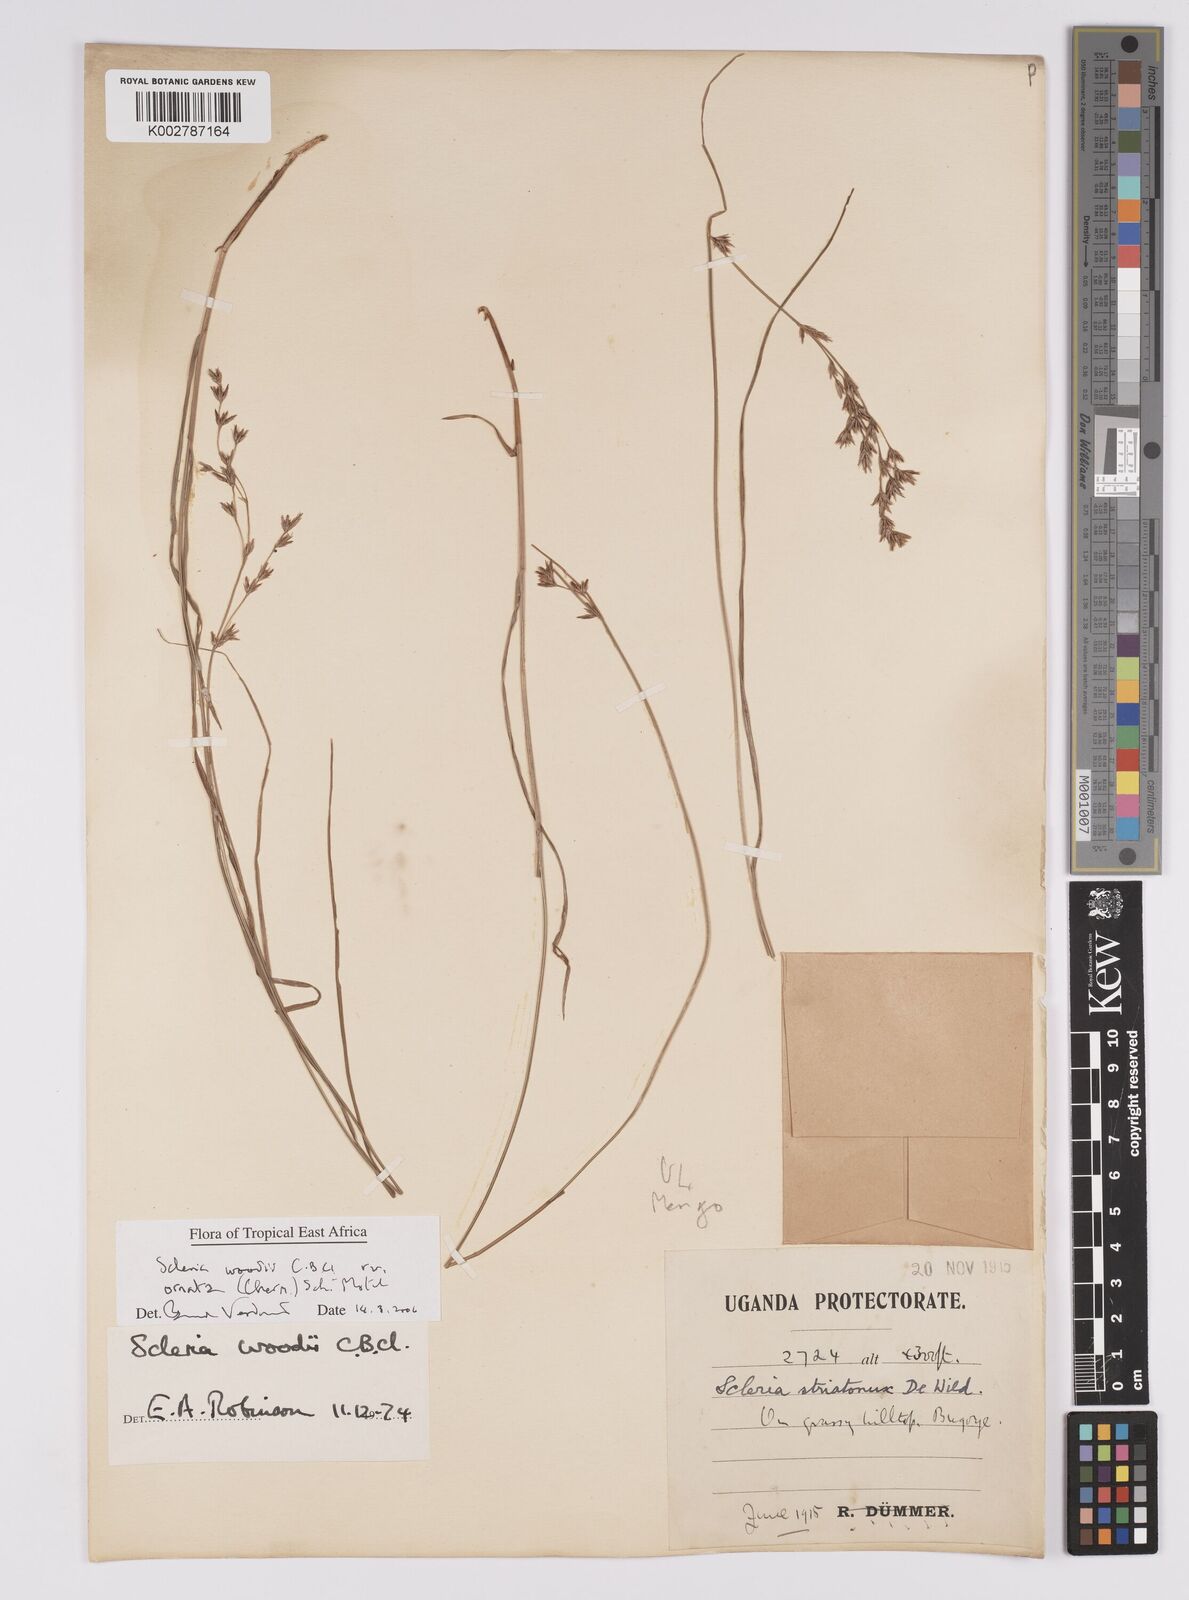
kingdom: Plantae
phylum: Tracheophyta
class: Liliopsida
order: Poales
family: Cyperaceae
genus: Scleria
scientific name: Scleria woodii
